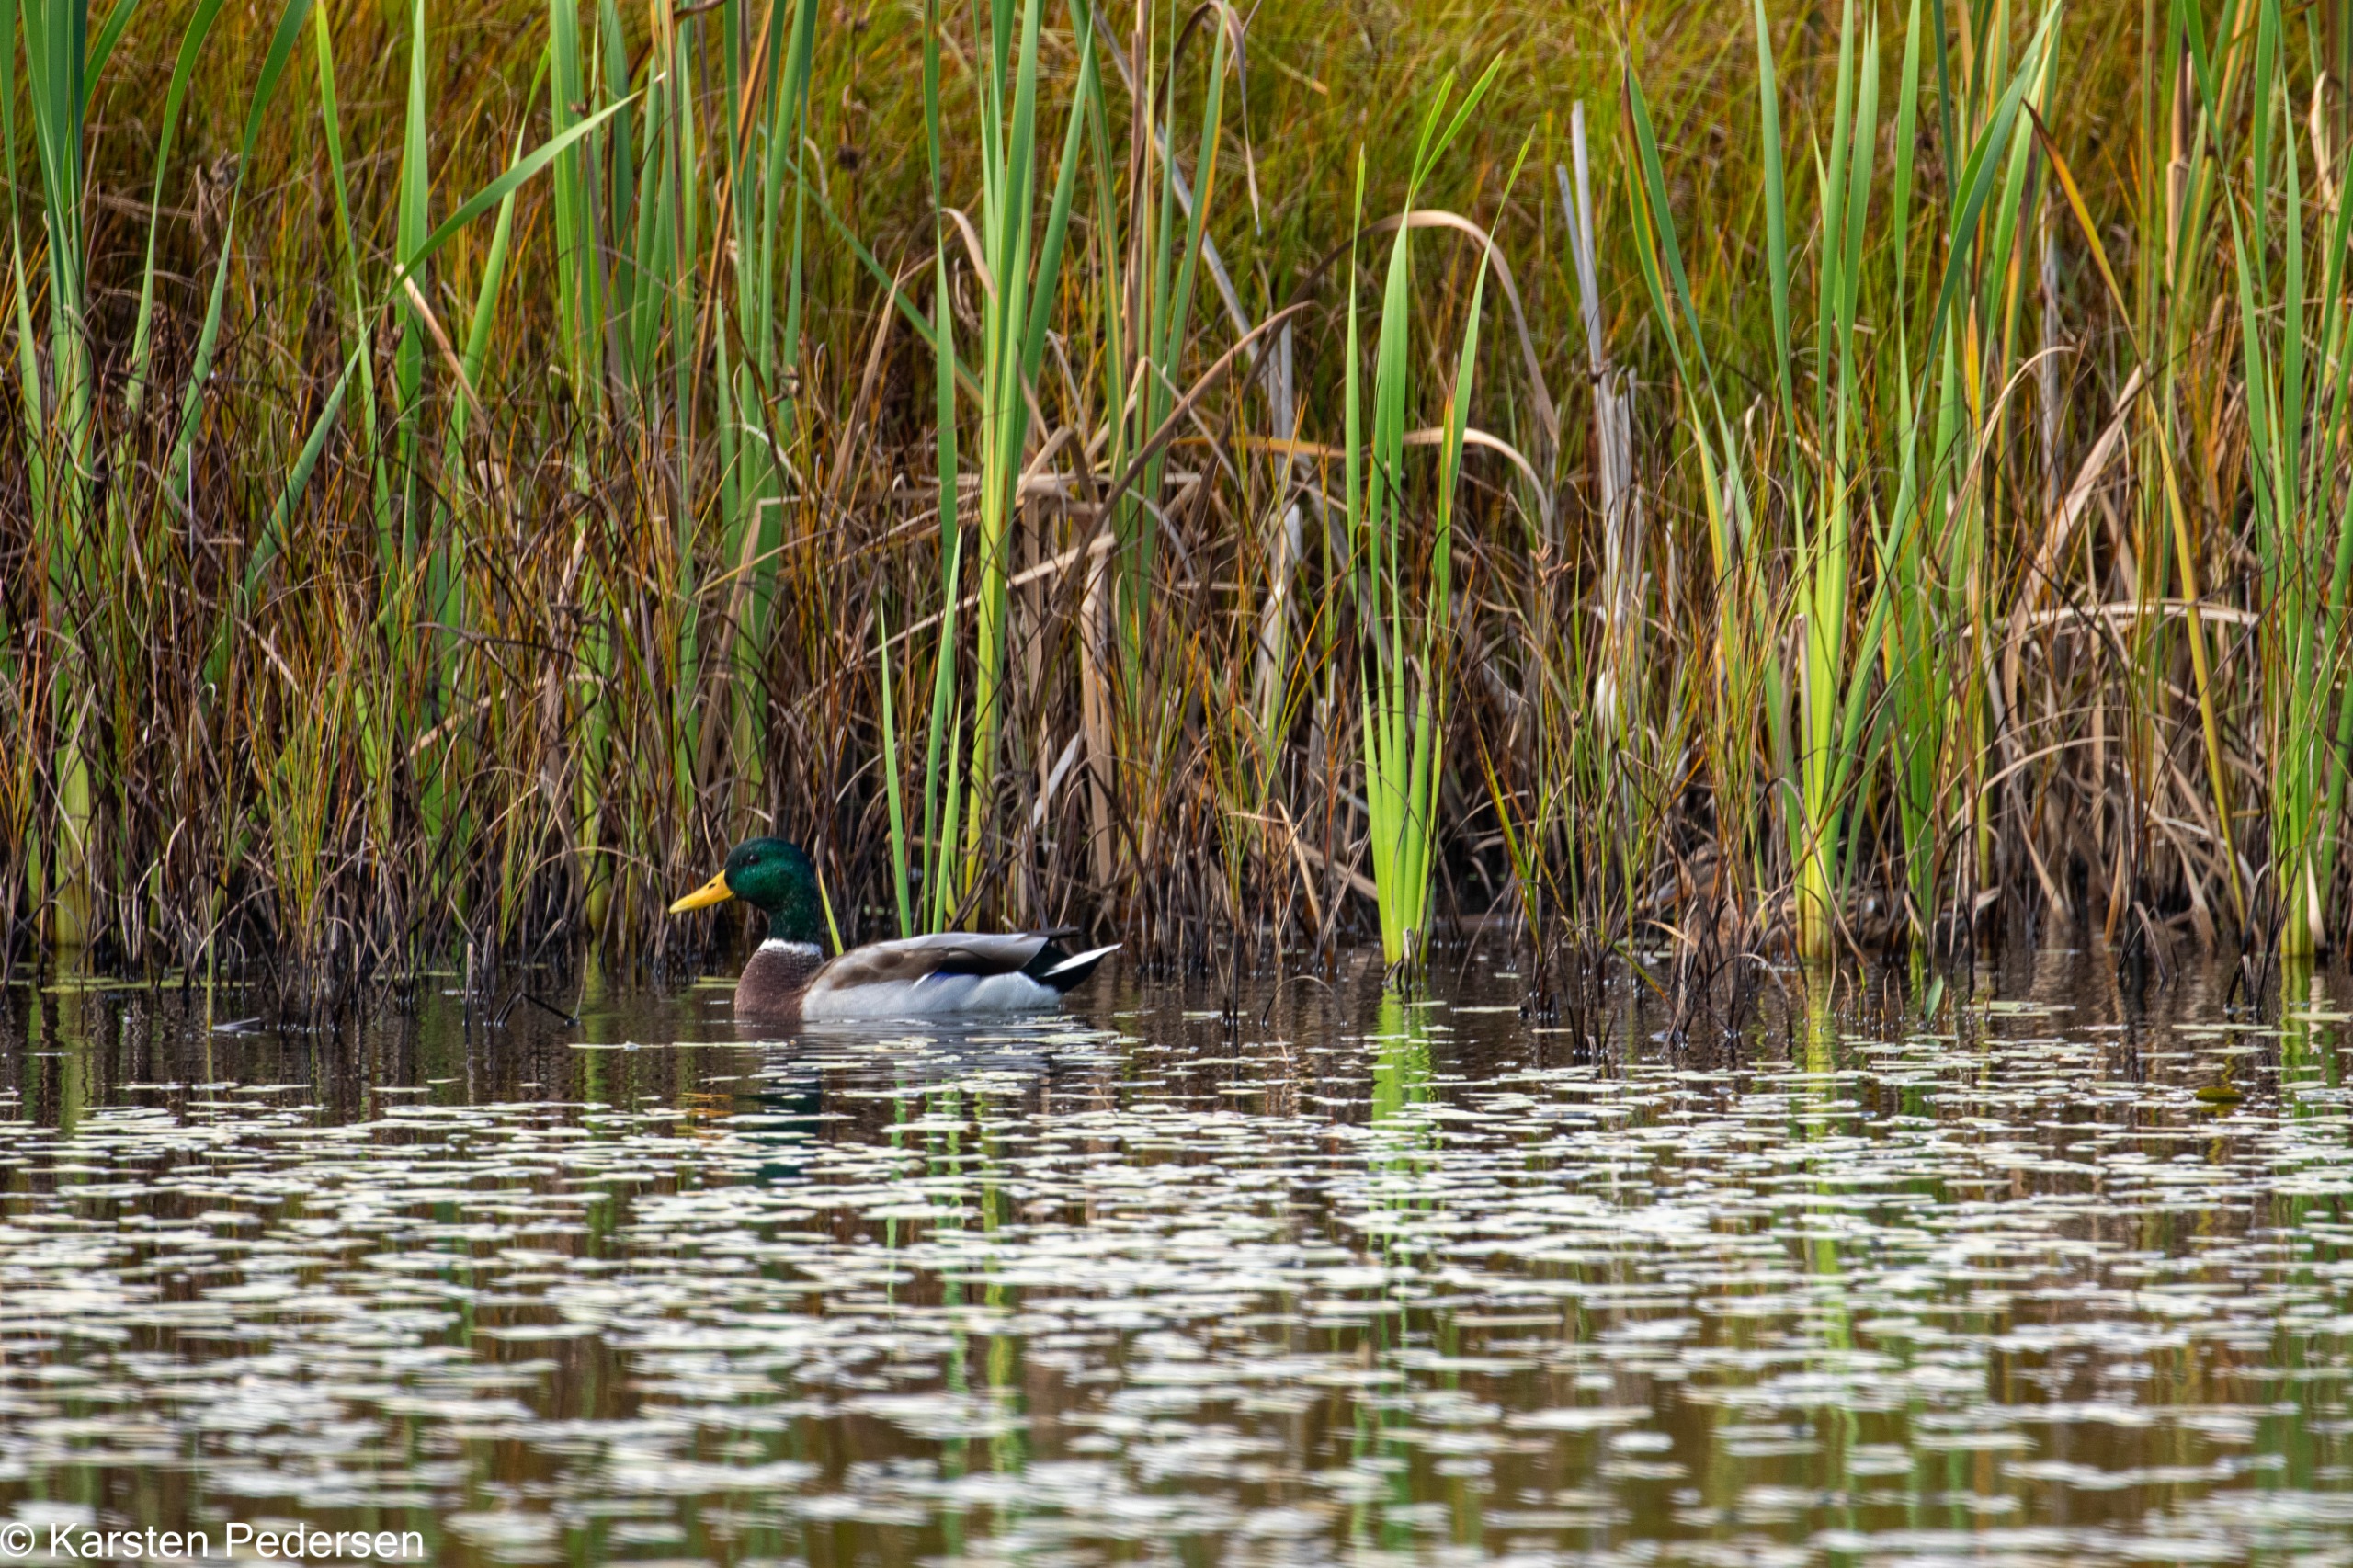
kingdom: Animalia
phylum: Chordata
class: Aves
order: Anseriformes
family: Anatidae
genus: Anas
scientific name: Anas platyrhynchos
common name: Gråand
